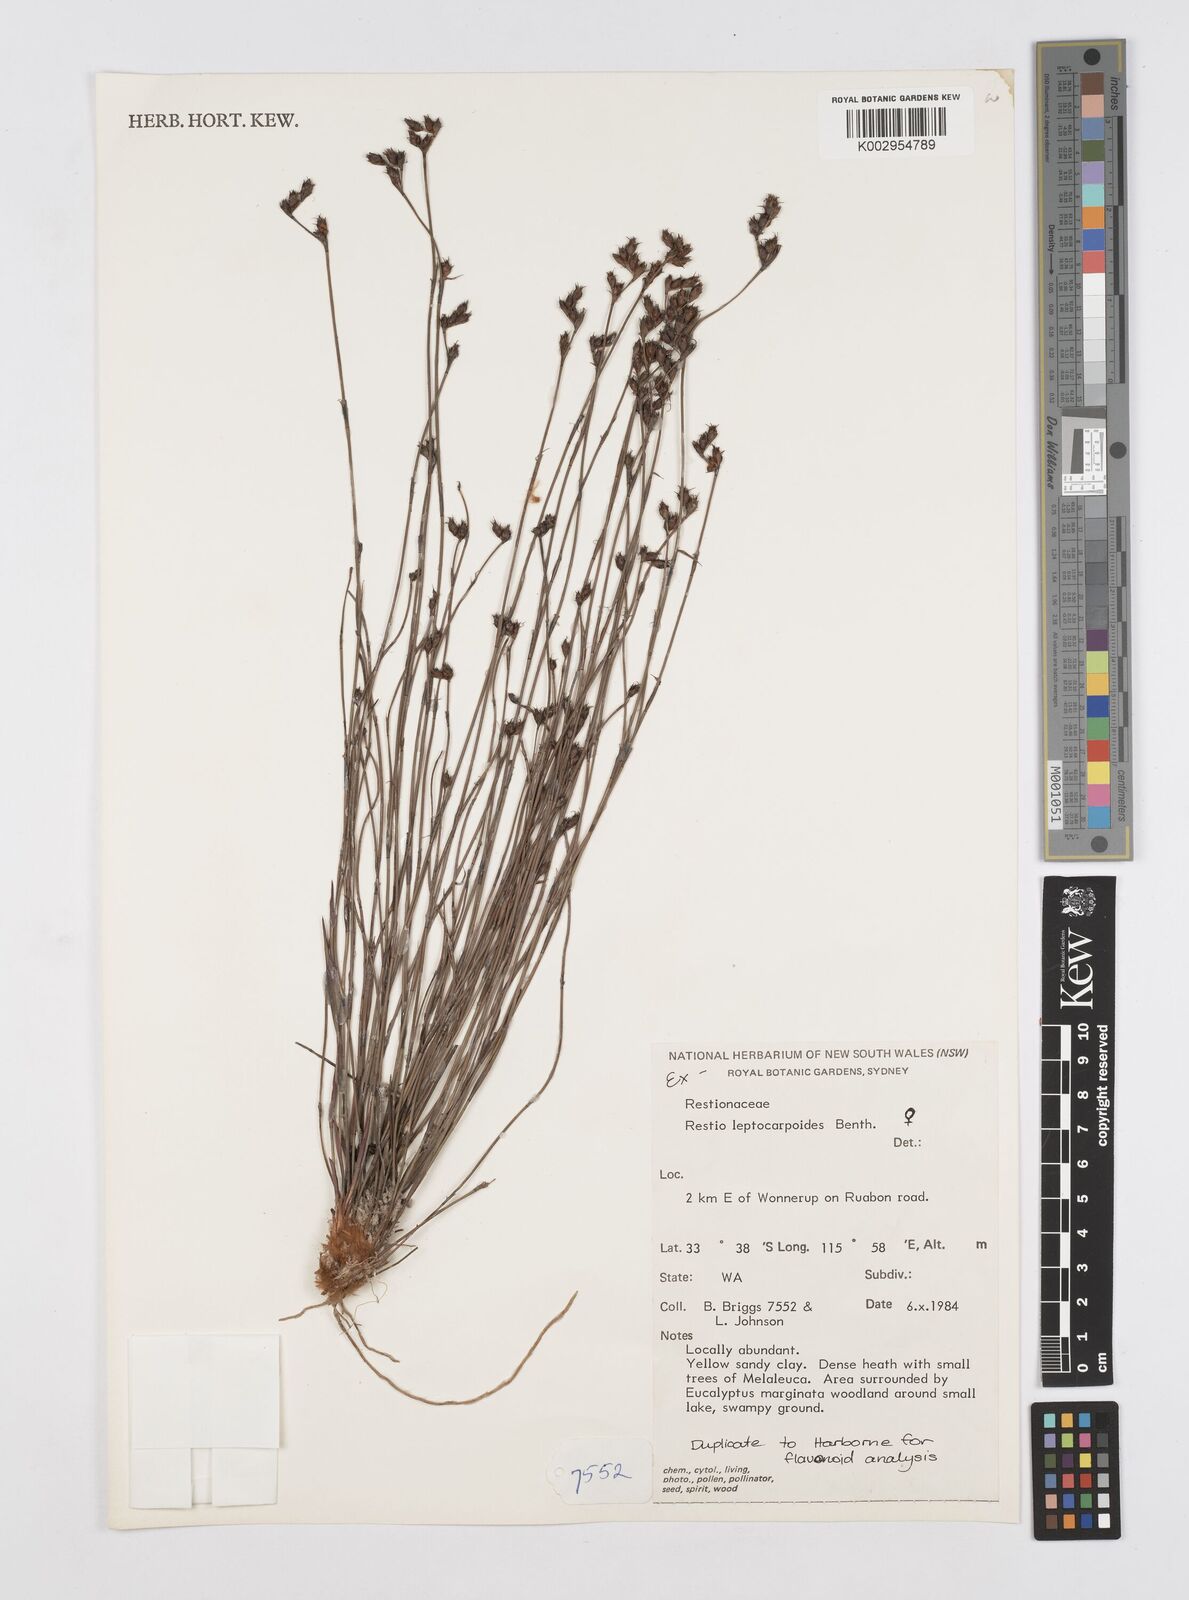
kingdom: Plantae
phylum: Tracheophyta
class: Liliopsida
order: Poales
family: Restionaceae
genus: Cytogonidium
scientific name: Cytogonidium leptocarpoides
